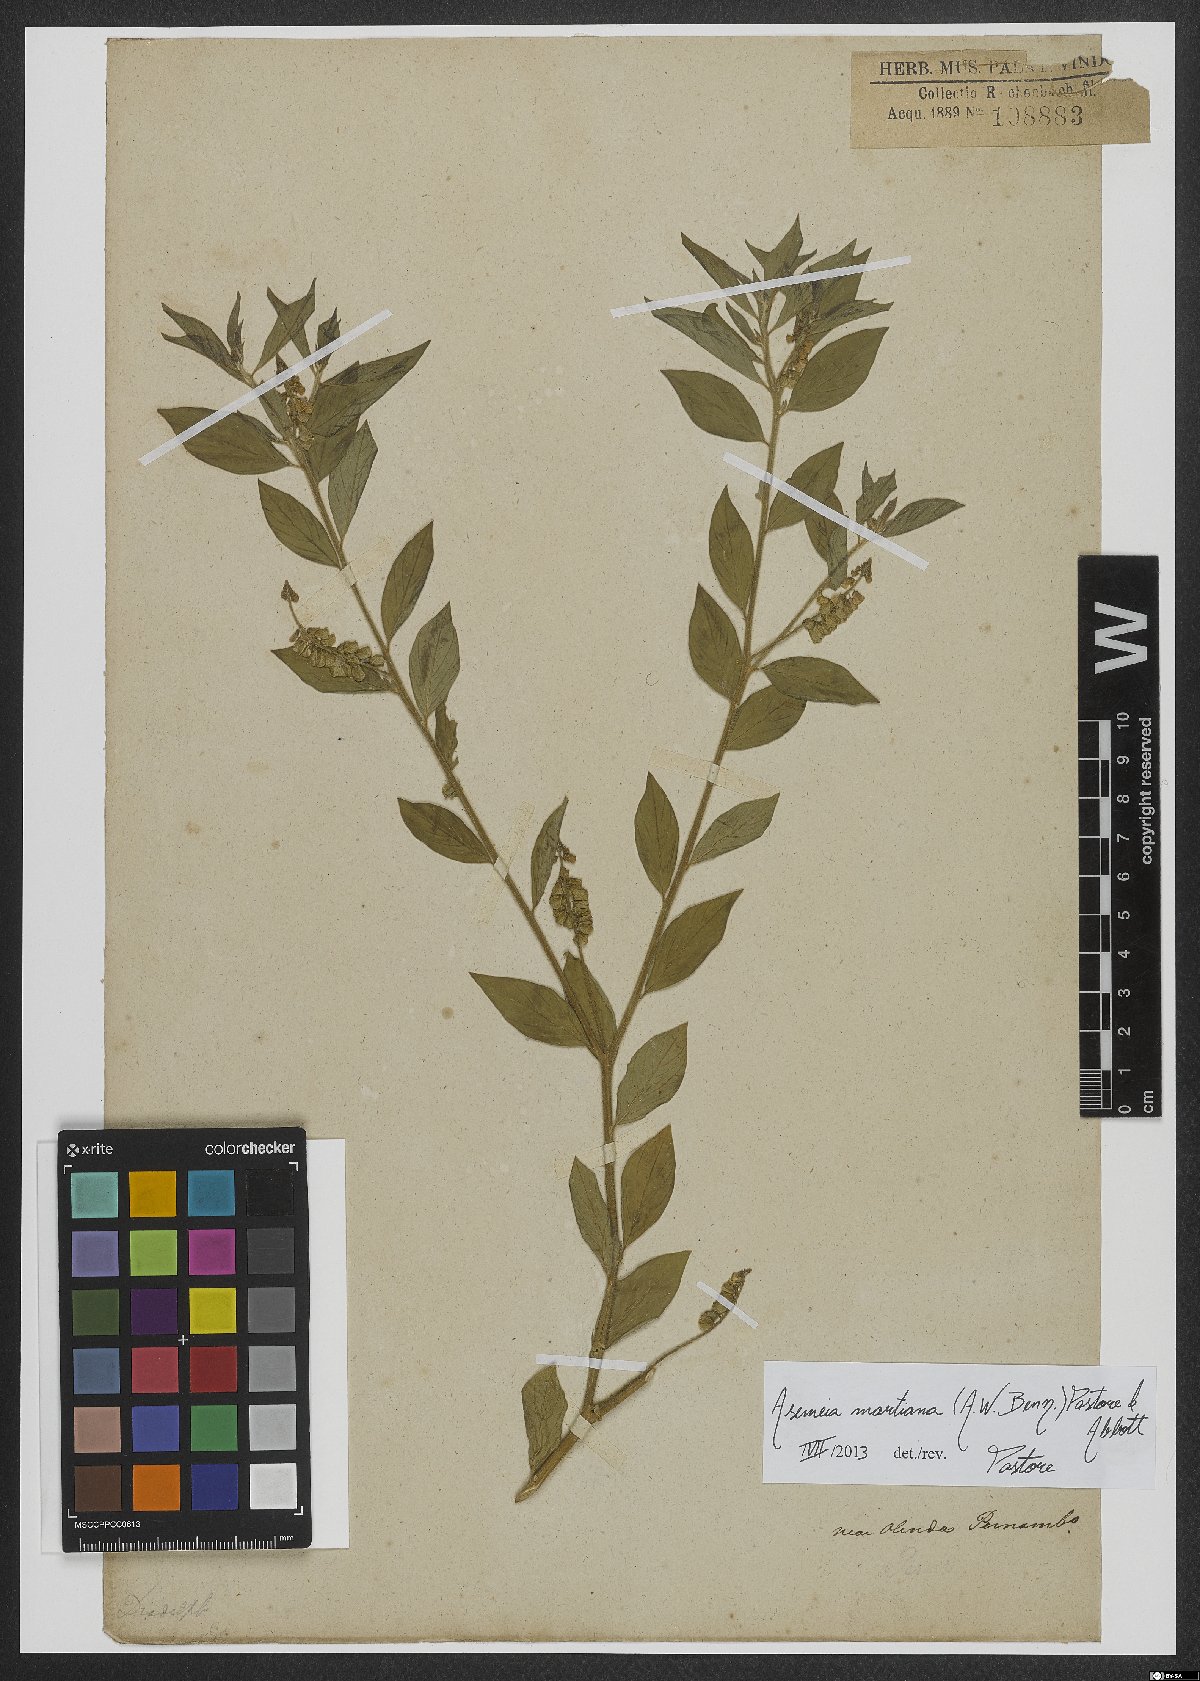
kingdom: Plantae
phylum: Tracheophyta
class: Magnoliopsida
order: Fabales
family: Polygalaceae
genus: Asemeia
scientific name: Asemeia martiana
